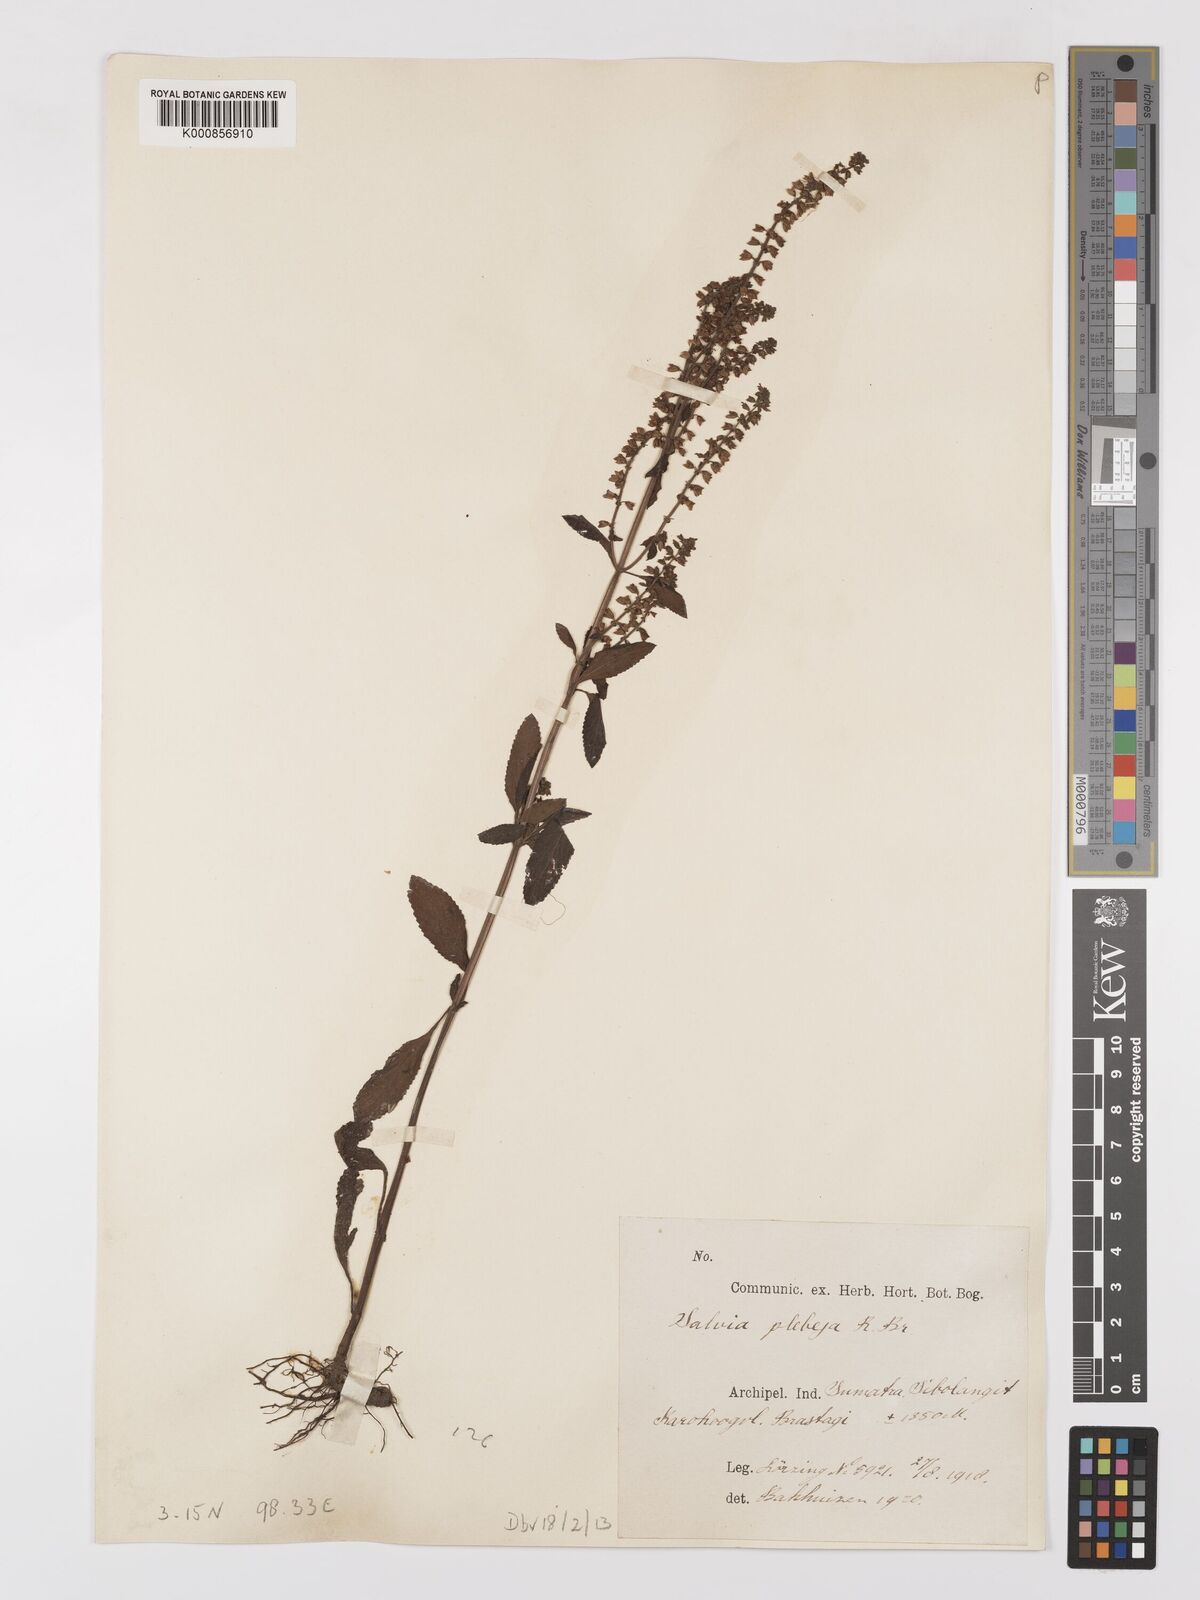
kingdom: Plantae
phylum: Tracheophyta
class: Magnoliopsida
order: Lamiales
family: Lamiaceae
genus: Salvia
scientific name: Salvia plebeia
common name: Australian sage
